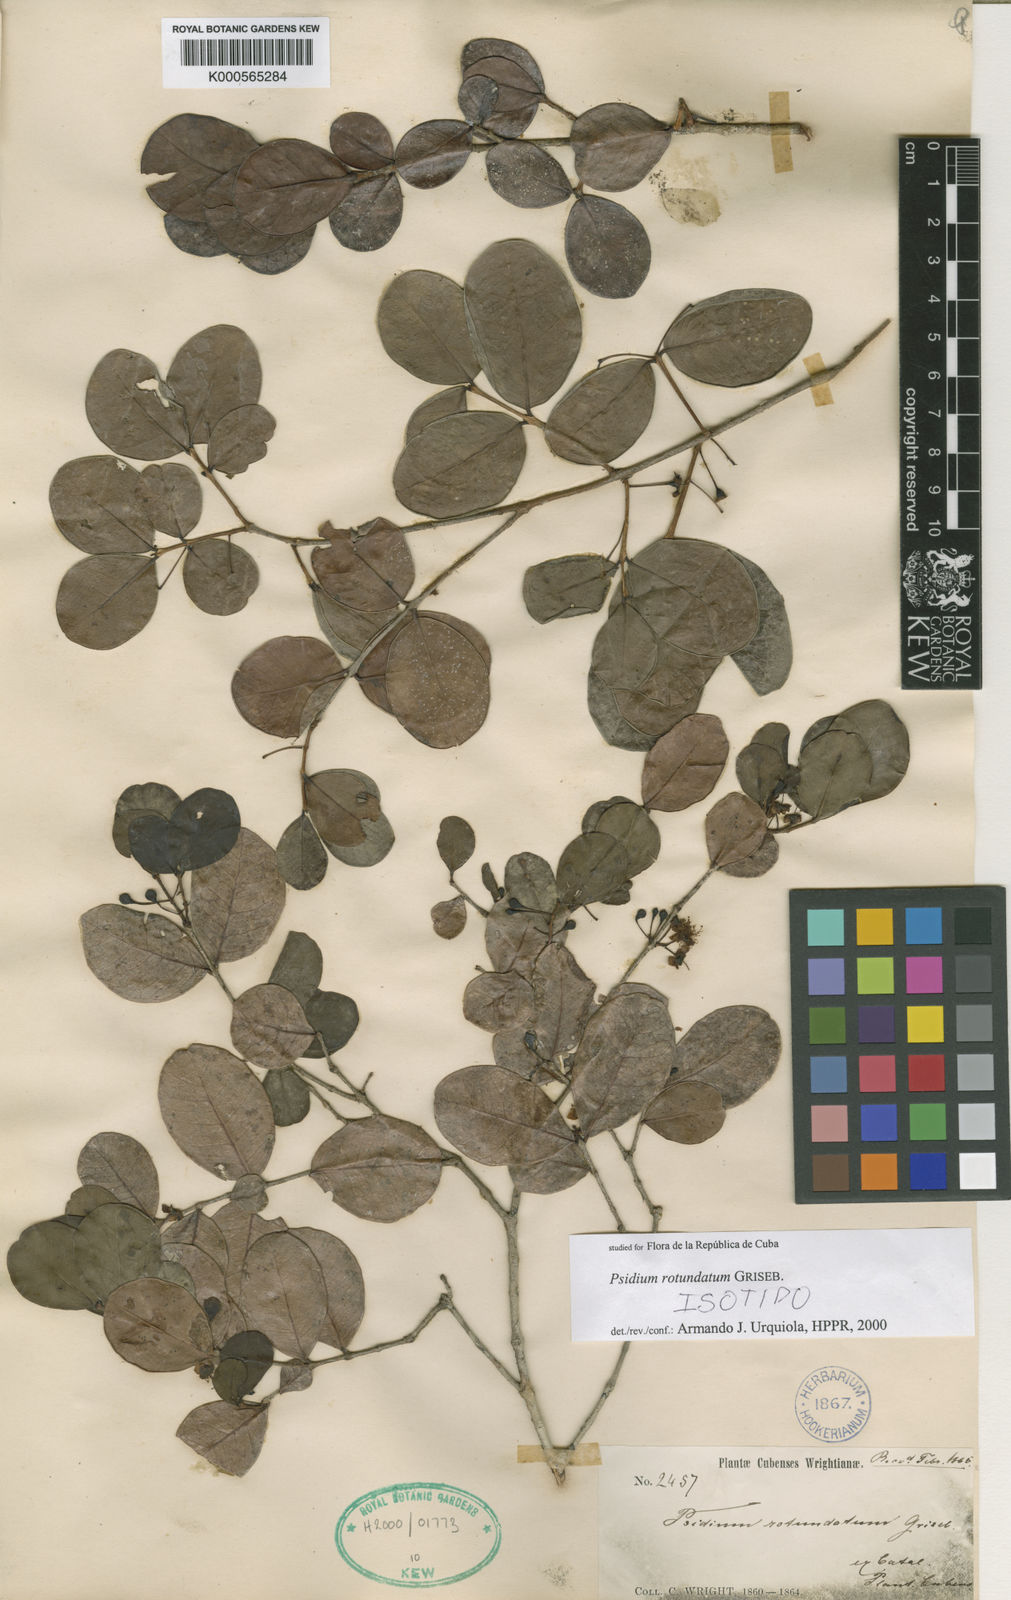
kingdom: Plantae
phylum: Tracheophyta
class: Magnoliopsida
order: Myrtales
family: Myrtaceae
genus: Psidium
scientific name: Psidium rotundatum
